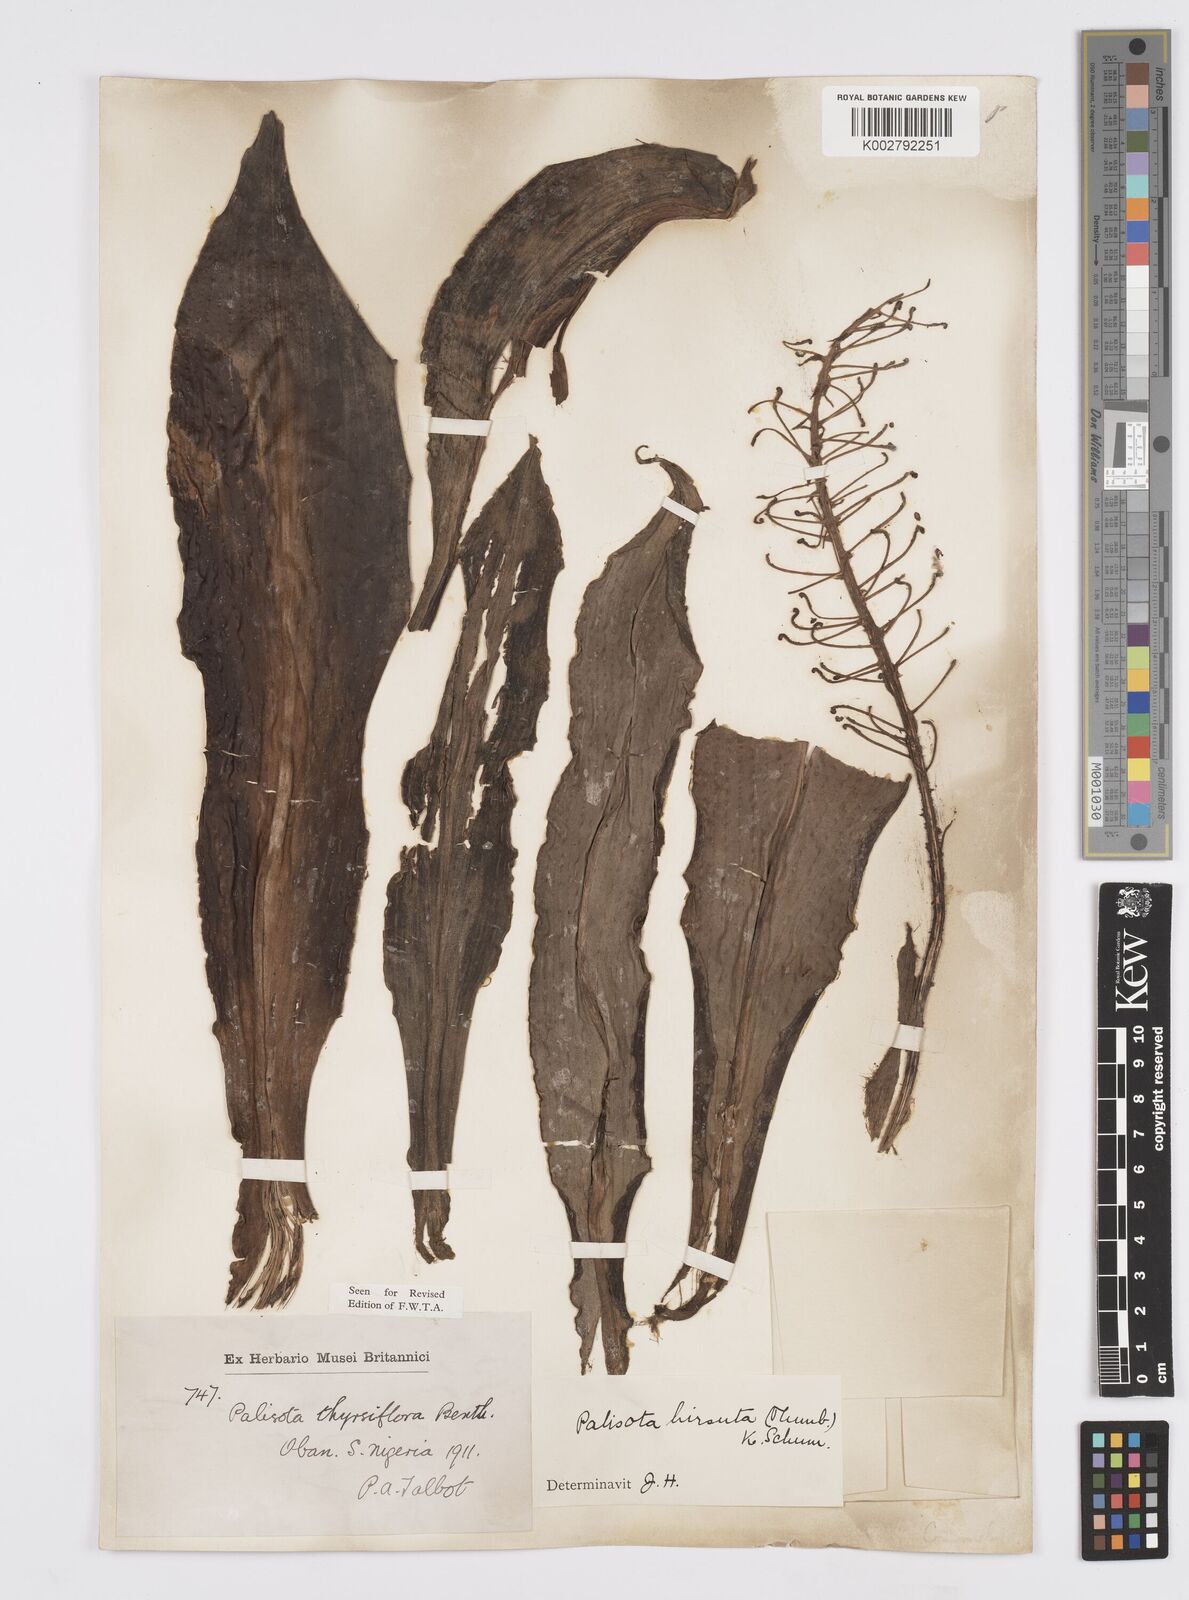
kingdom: Plantae
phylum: Tracheophyta
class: Liliopsida
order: Commelinales
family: Commelinaceae
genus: Palisota
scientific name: Palisota hirsuta
